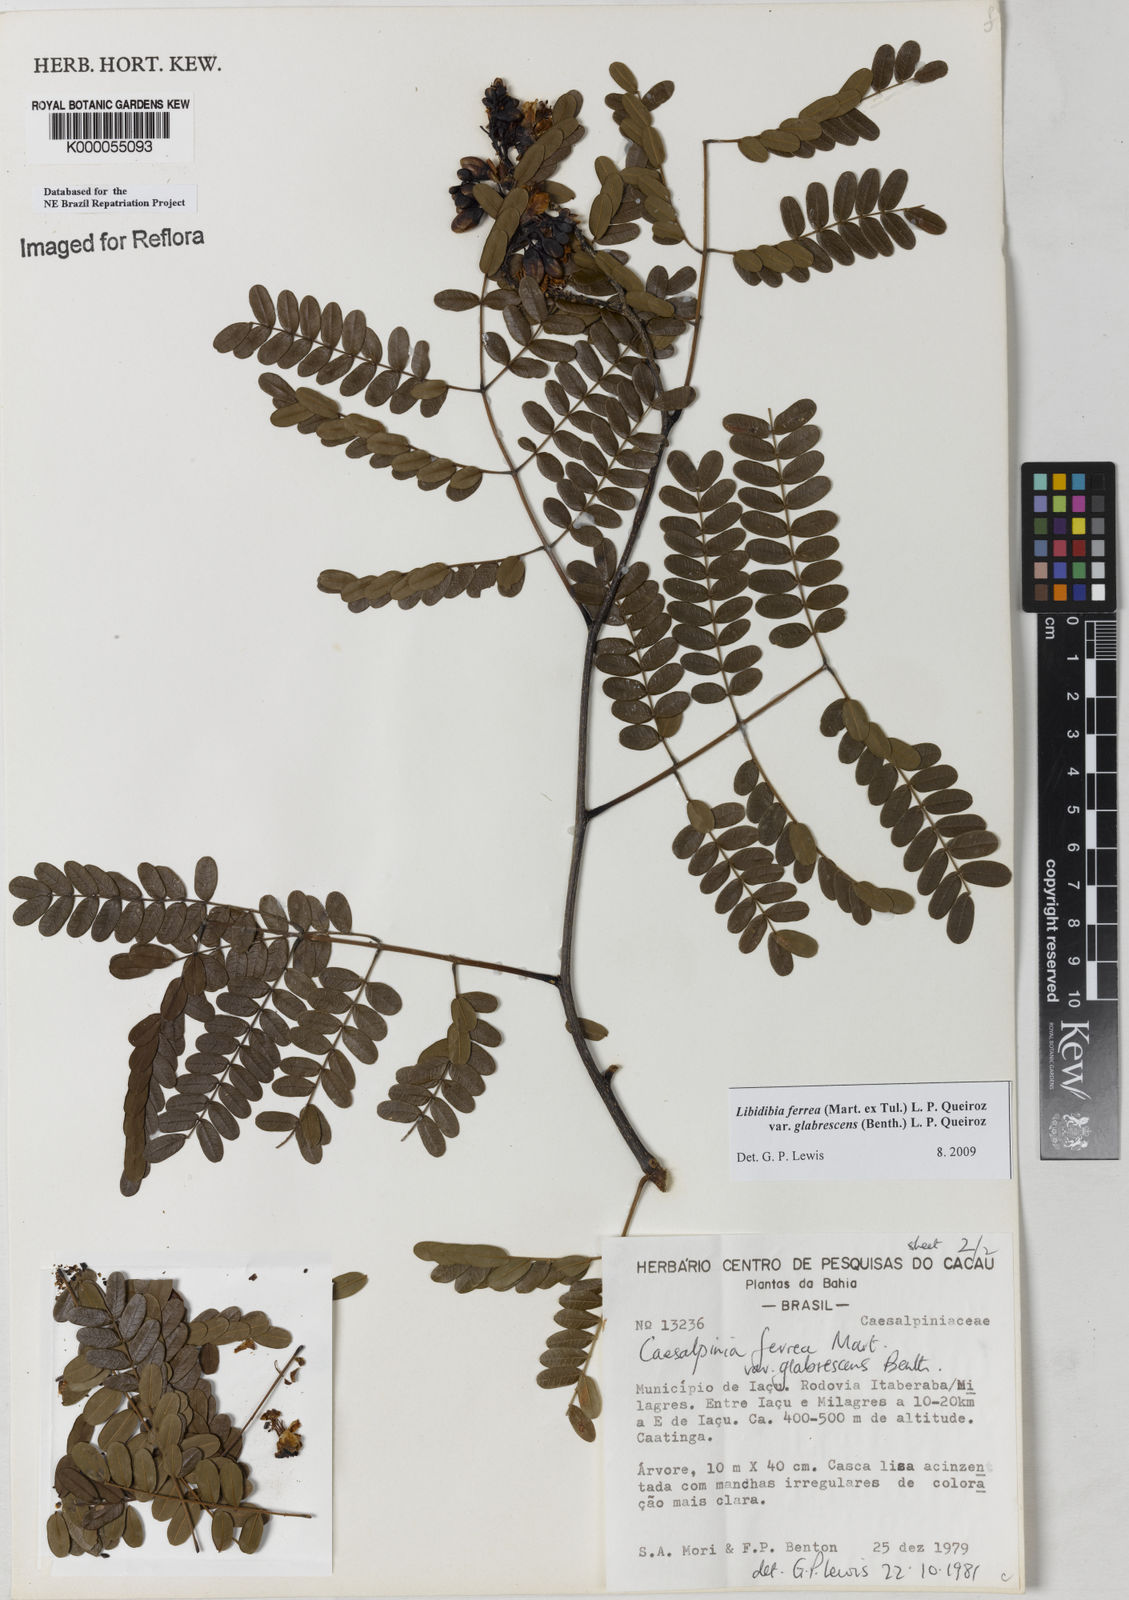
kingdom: Plantae
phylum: Tracheophyta
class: Magnoliopsida
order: Fabales
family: Fabaceae
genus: Libidibia
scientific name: Libidibia ferrea
